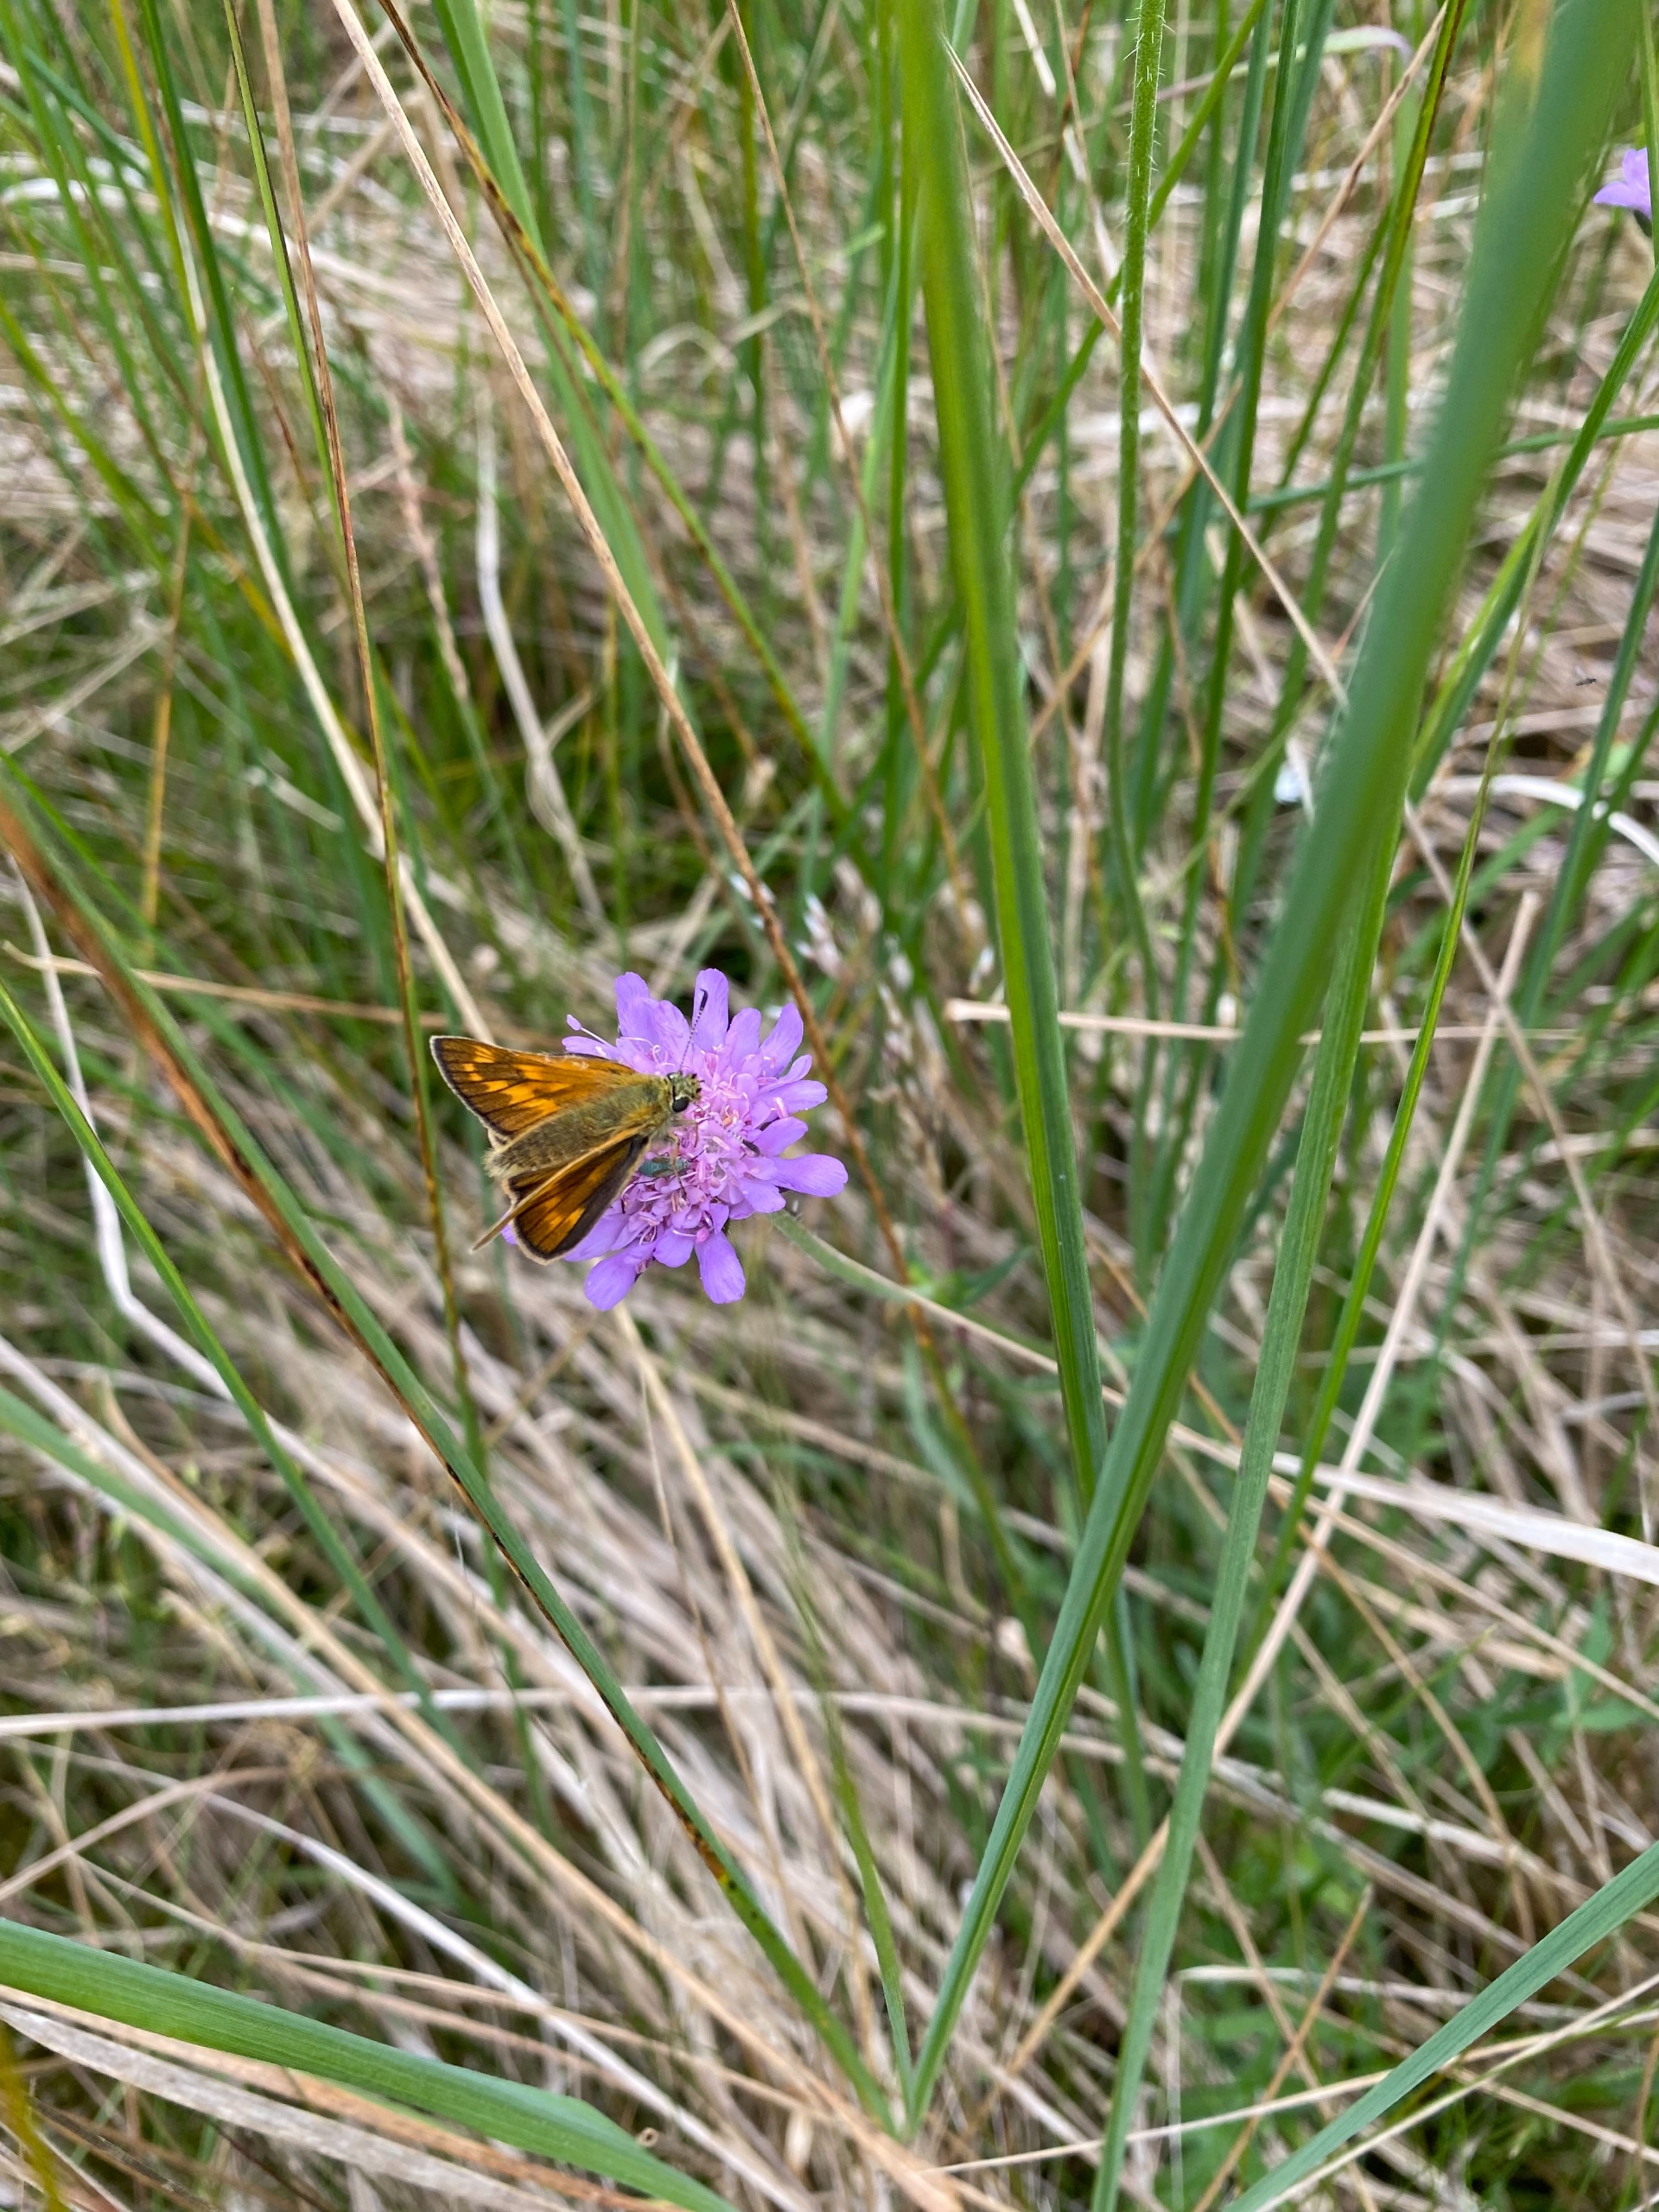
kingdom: Animalia
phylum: Arthropoda
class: Insecta
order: Lepidoptera
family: Hesperiidae
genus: Ochlodes
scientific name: Ochlodes venata
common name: Stor bredpande
